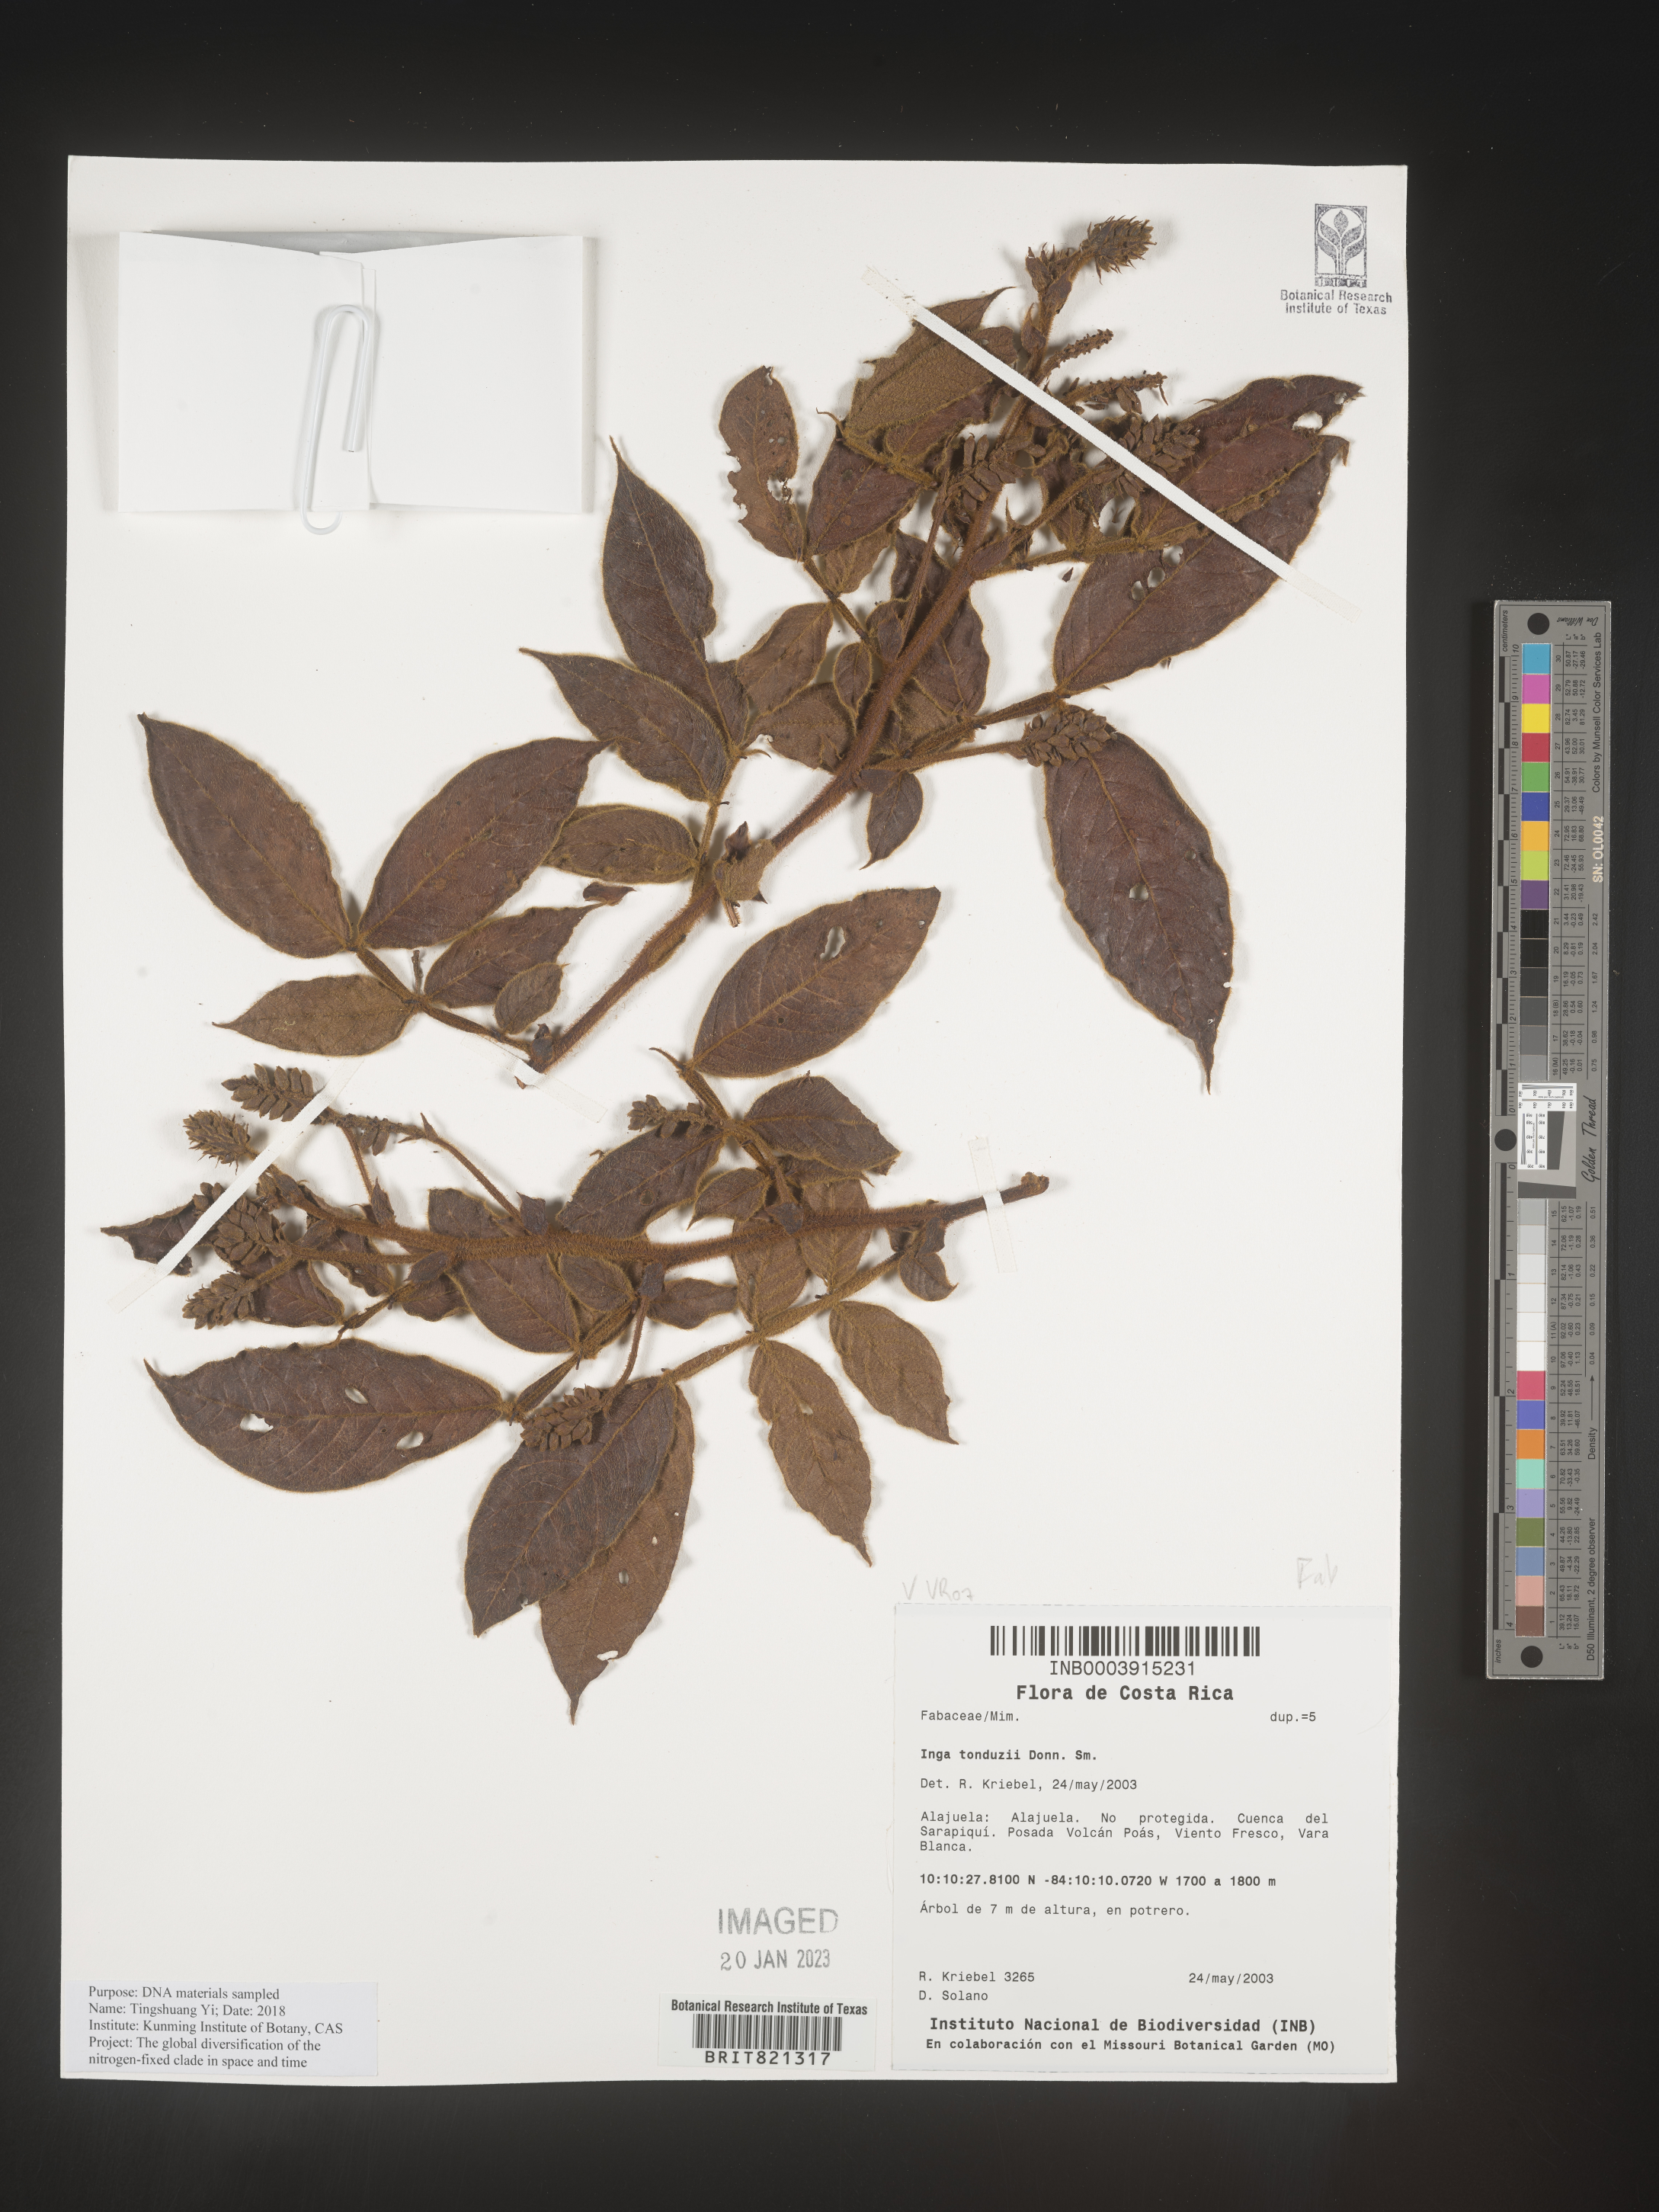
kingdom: Plantae
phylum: Tracheophyta
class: Magnoliopsida
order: Fabales
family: Fabaceae
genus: Inga
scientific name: Inga
